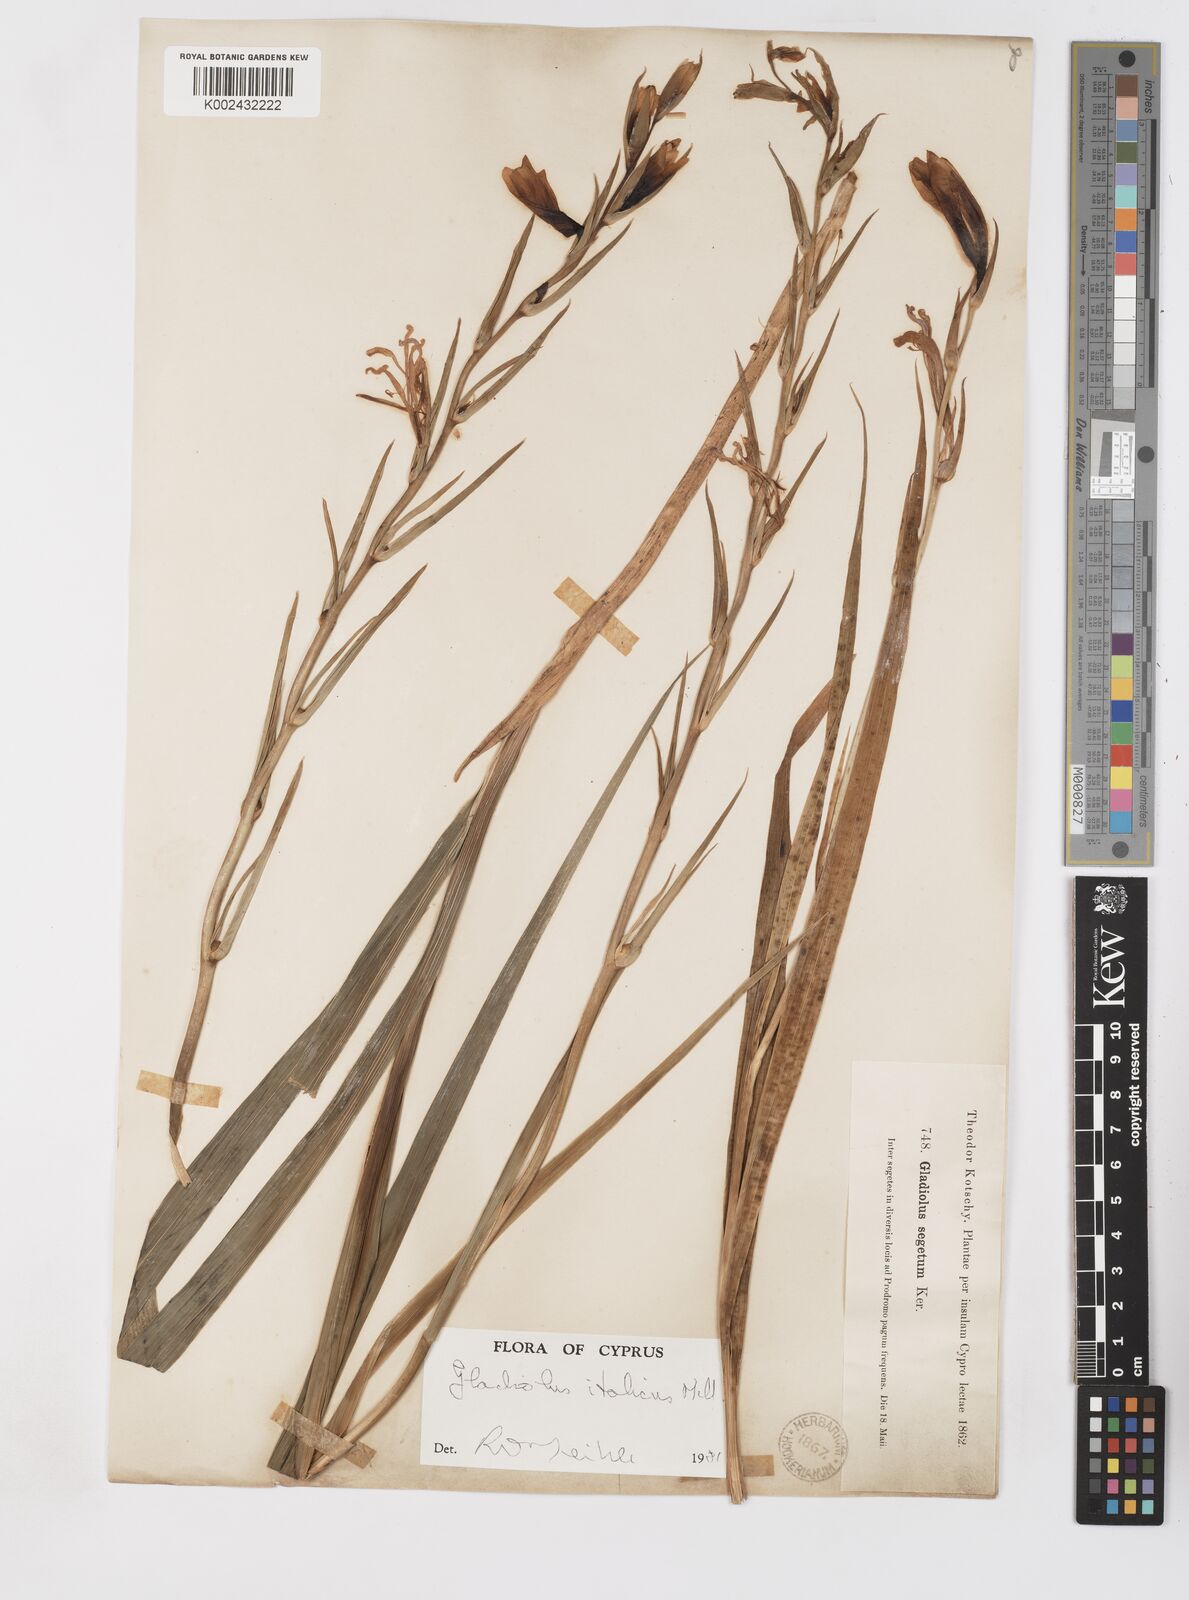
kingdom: Plantae
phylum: Tracheophyta
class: Liliopsida
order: Asparagales
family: Iridaceae
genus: Gladiolus
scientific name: Gladiolus italicus
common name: Field gladiolus
